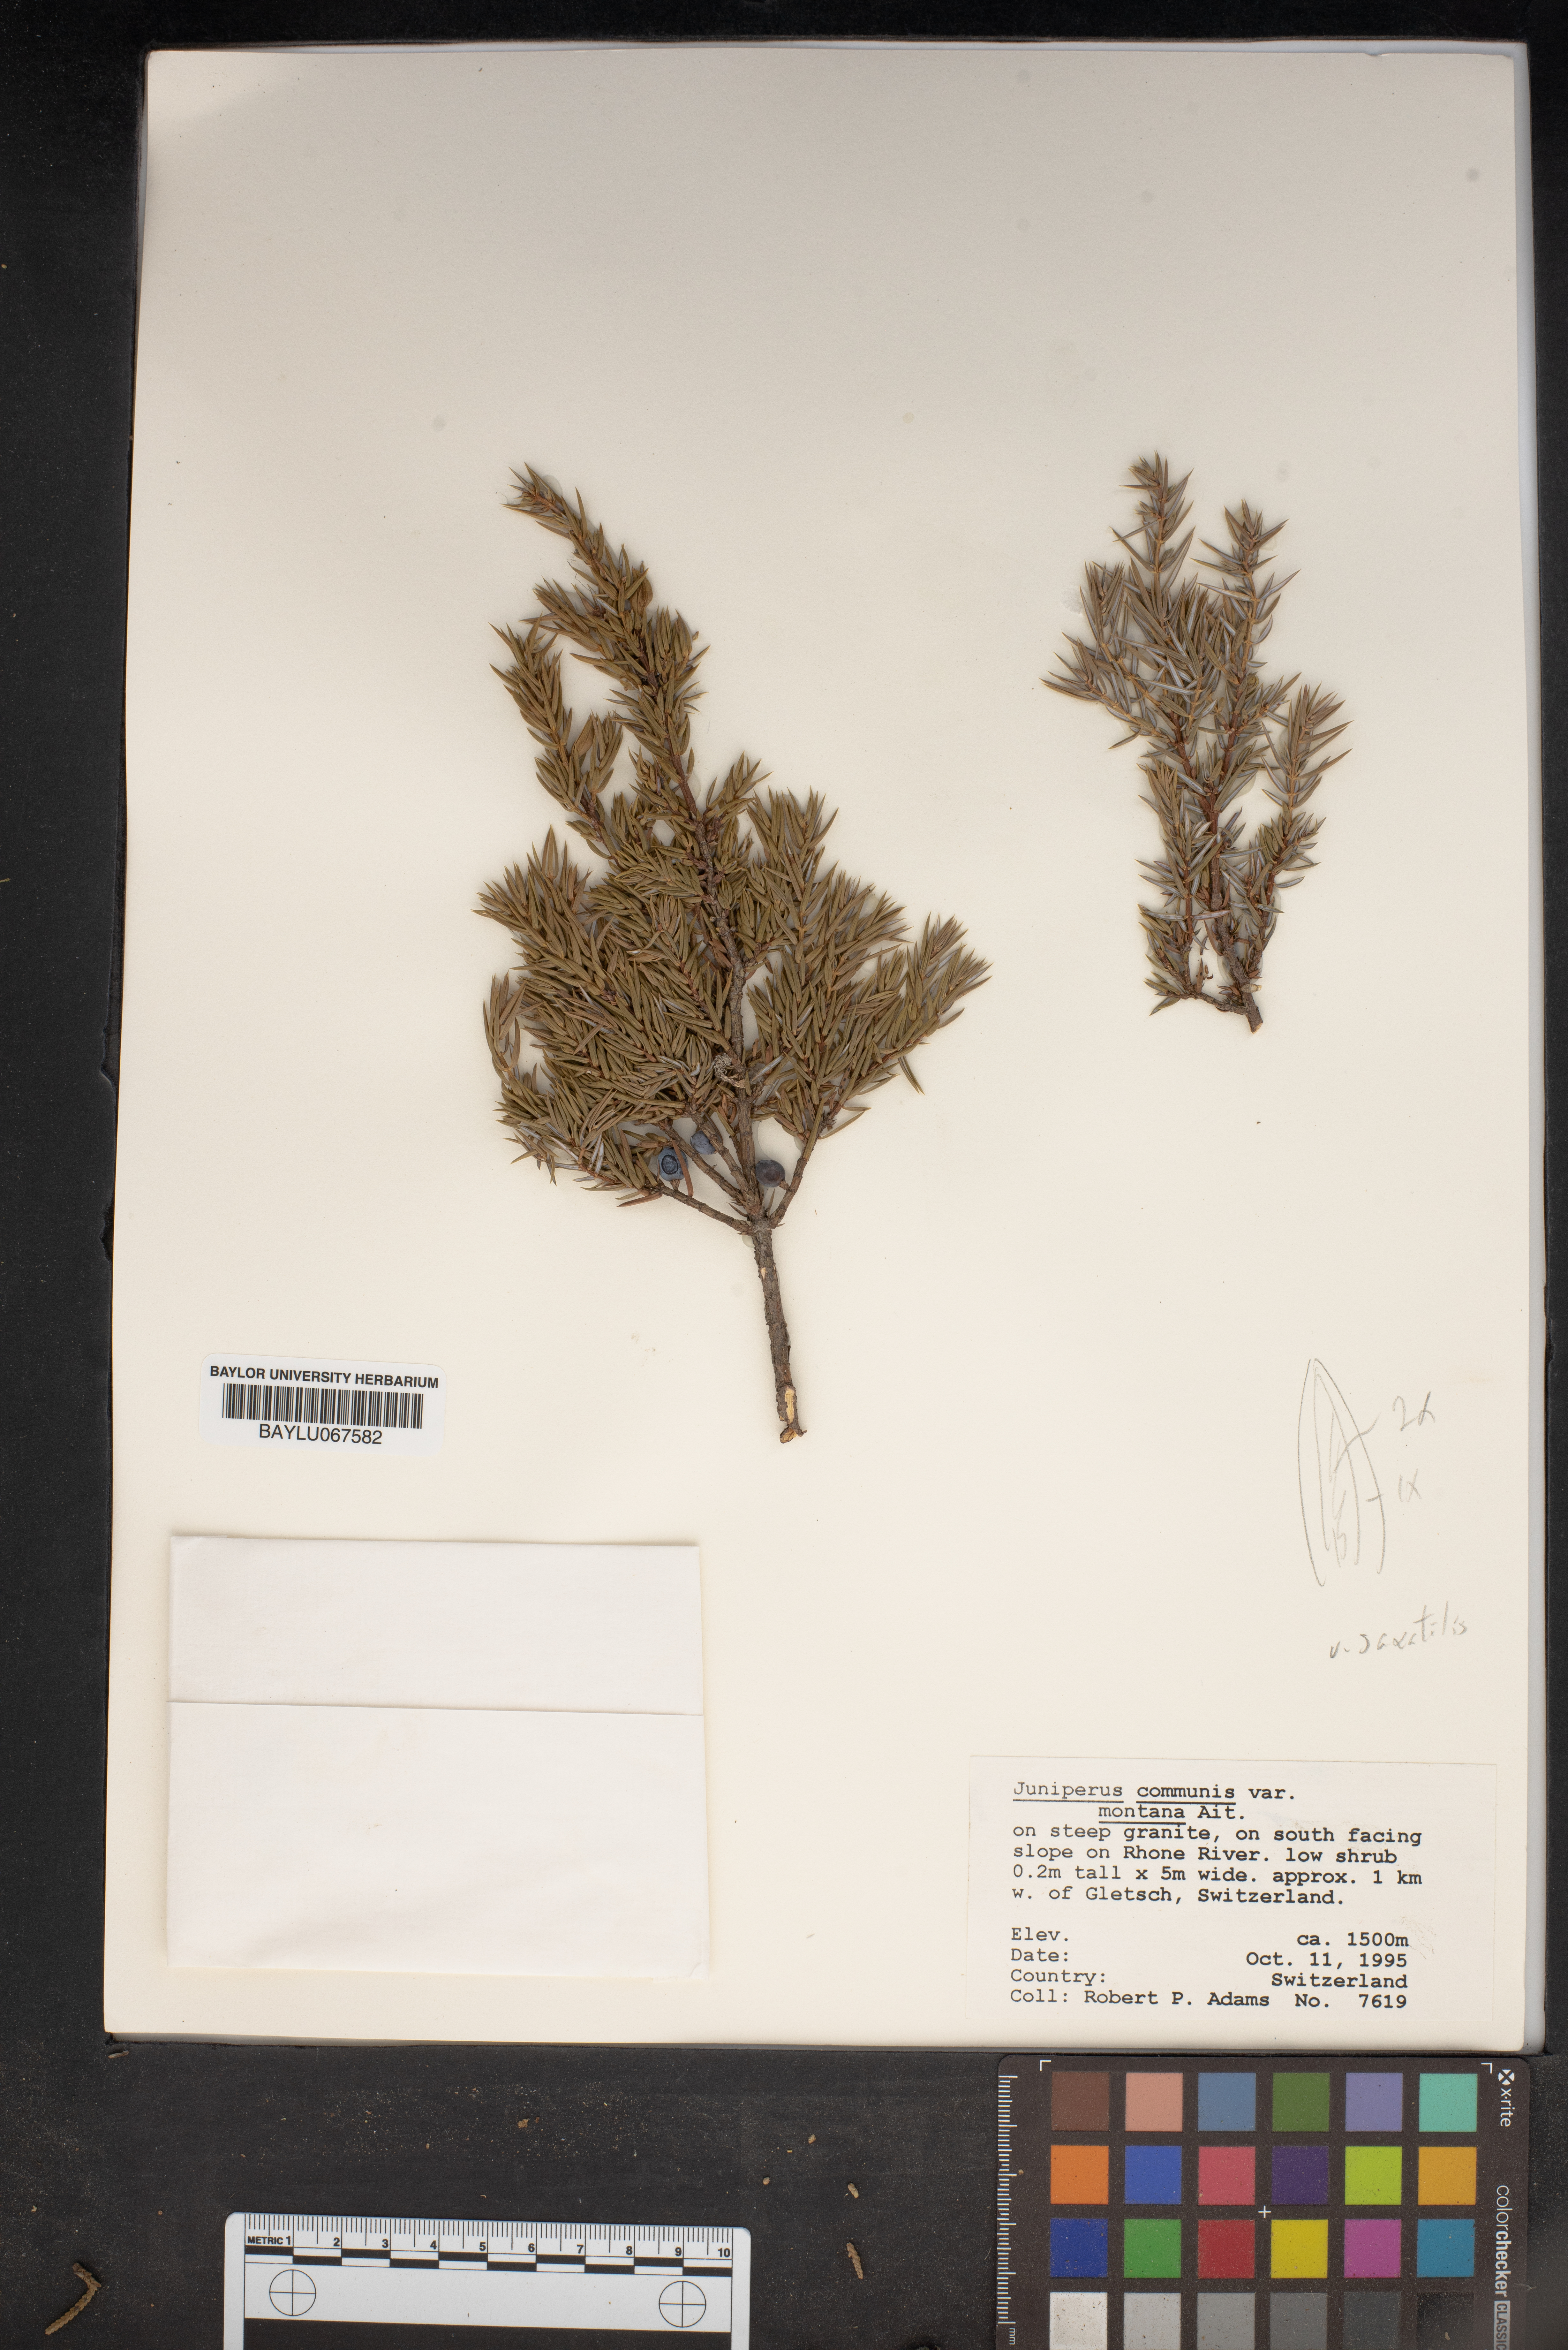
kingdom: Plantae
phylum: Tracheophyta
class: Pinopsida
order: Pinales
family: Cupressaceae
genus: Juniperus
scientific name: Juniperus communis
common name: Common juniper
